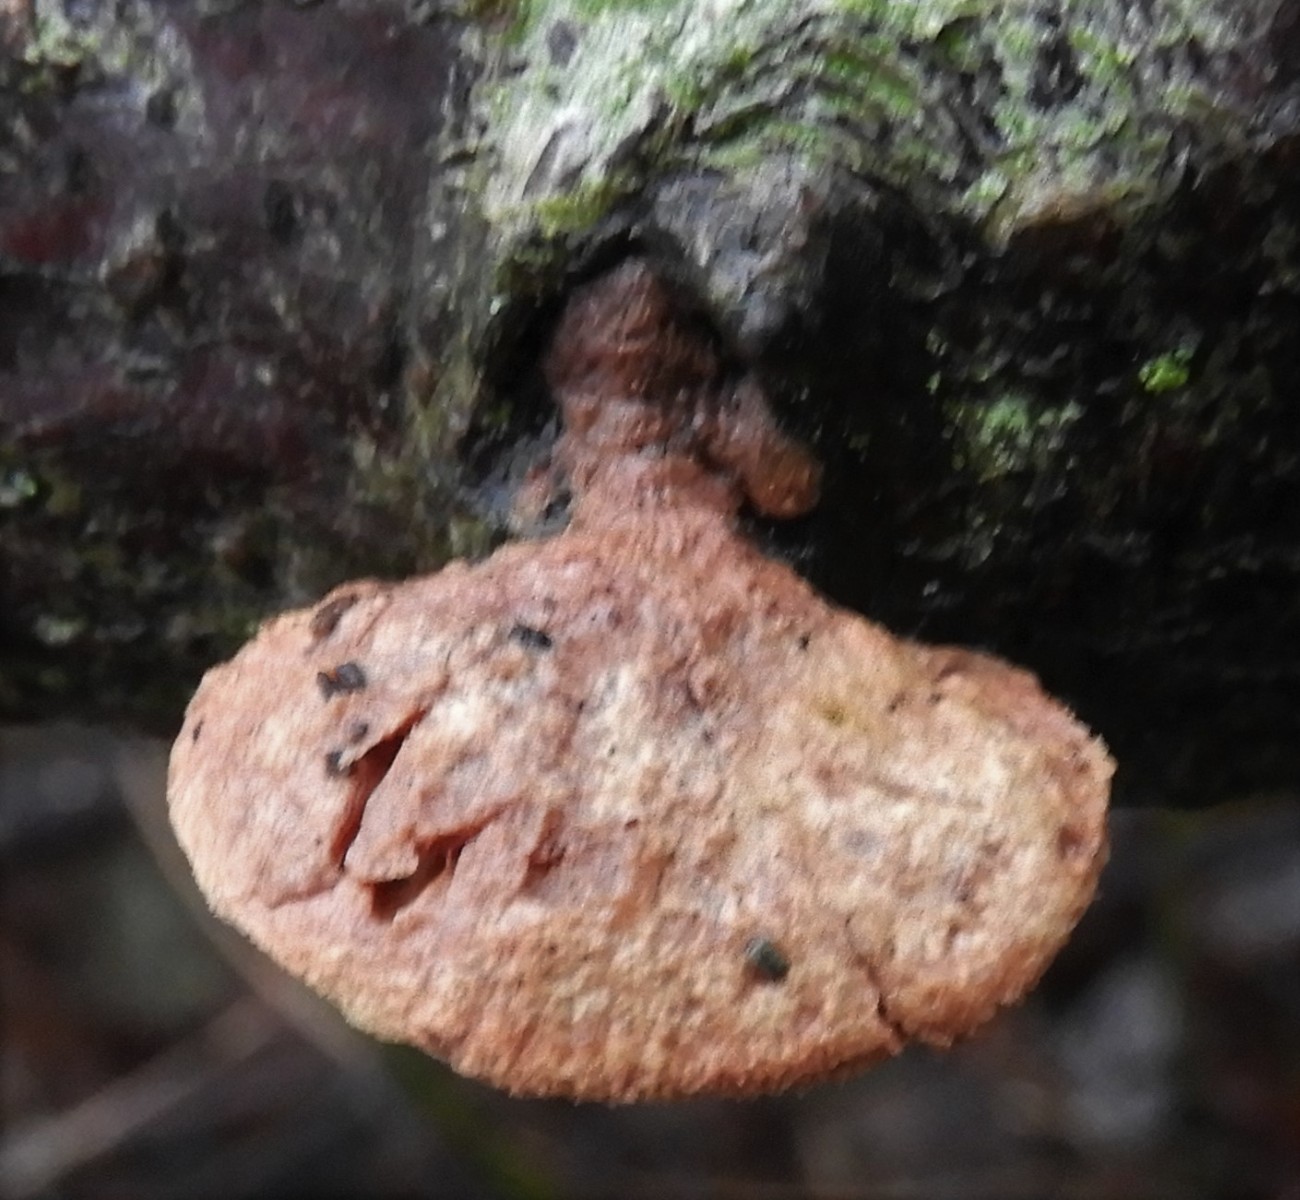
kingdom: Fungi
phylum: Basidiomycota
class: Agaricomycetes
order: Polyporales
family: Phanerochaetaceae
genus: Hapalopilus
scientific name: Hapalopilus rutilans
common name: rødlig okkerporesvamp
